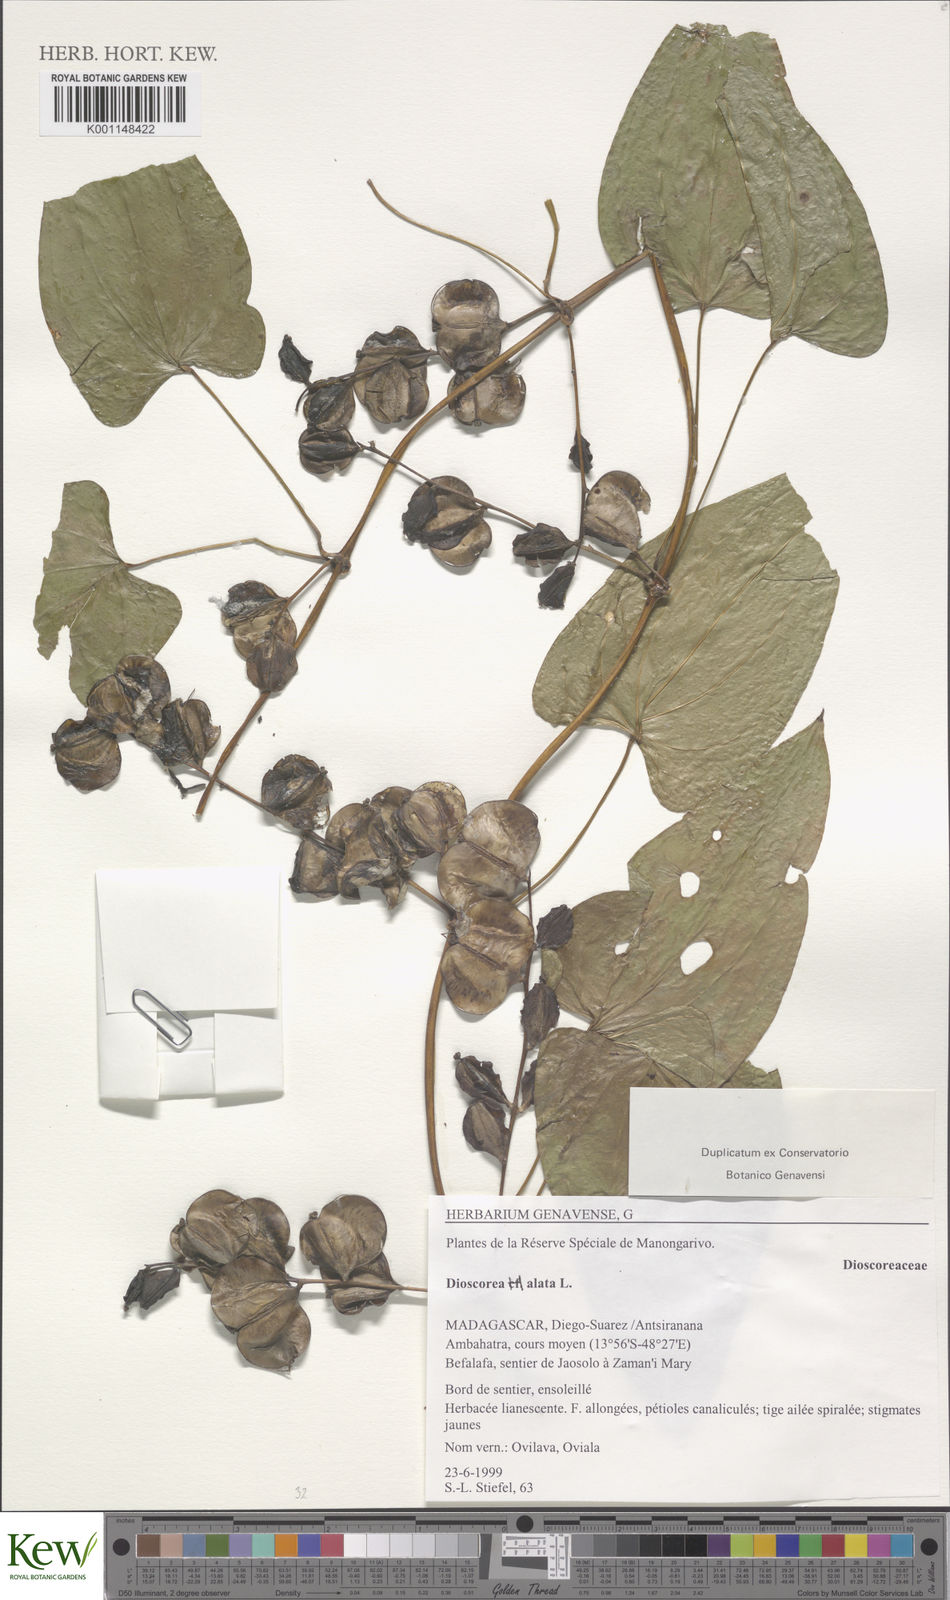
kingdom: Plantae
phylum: Tracheophyta
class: Liliopsida
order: Dioscoreales
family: Dioscoreaceae
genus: Dioscorea
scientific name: Dioscorea alata
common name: Water yam
